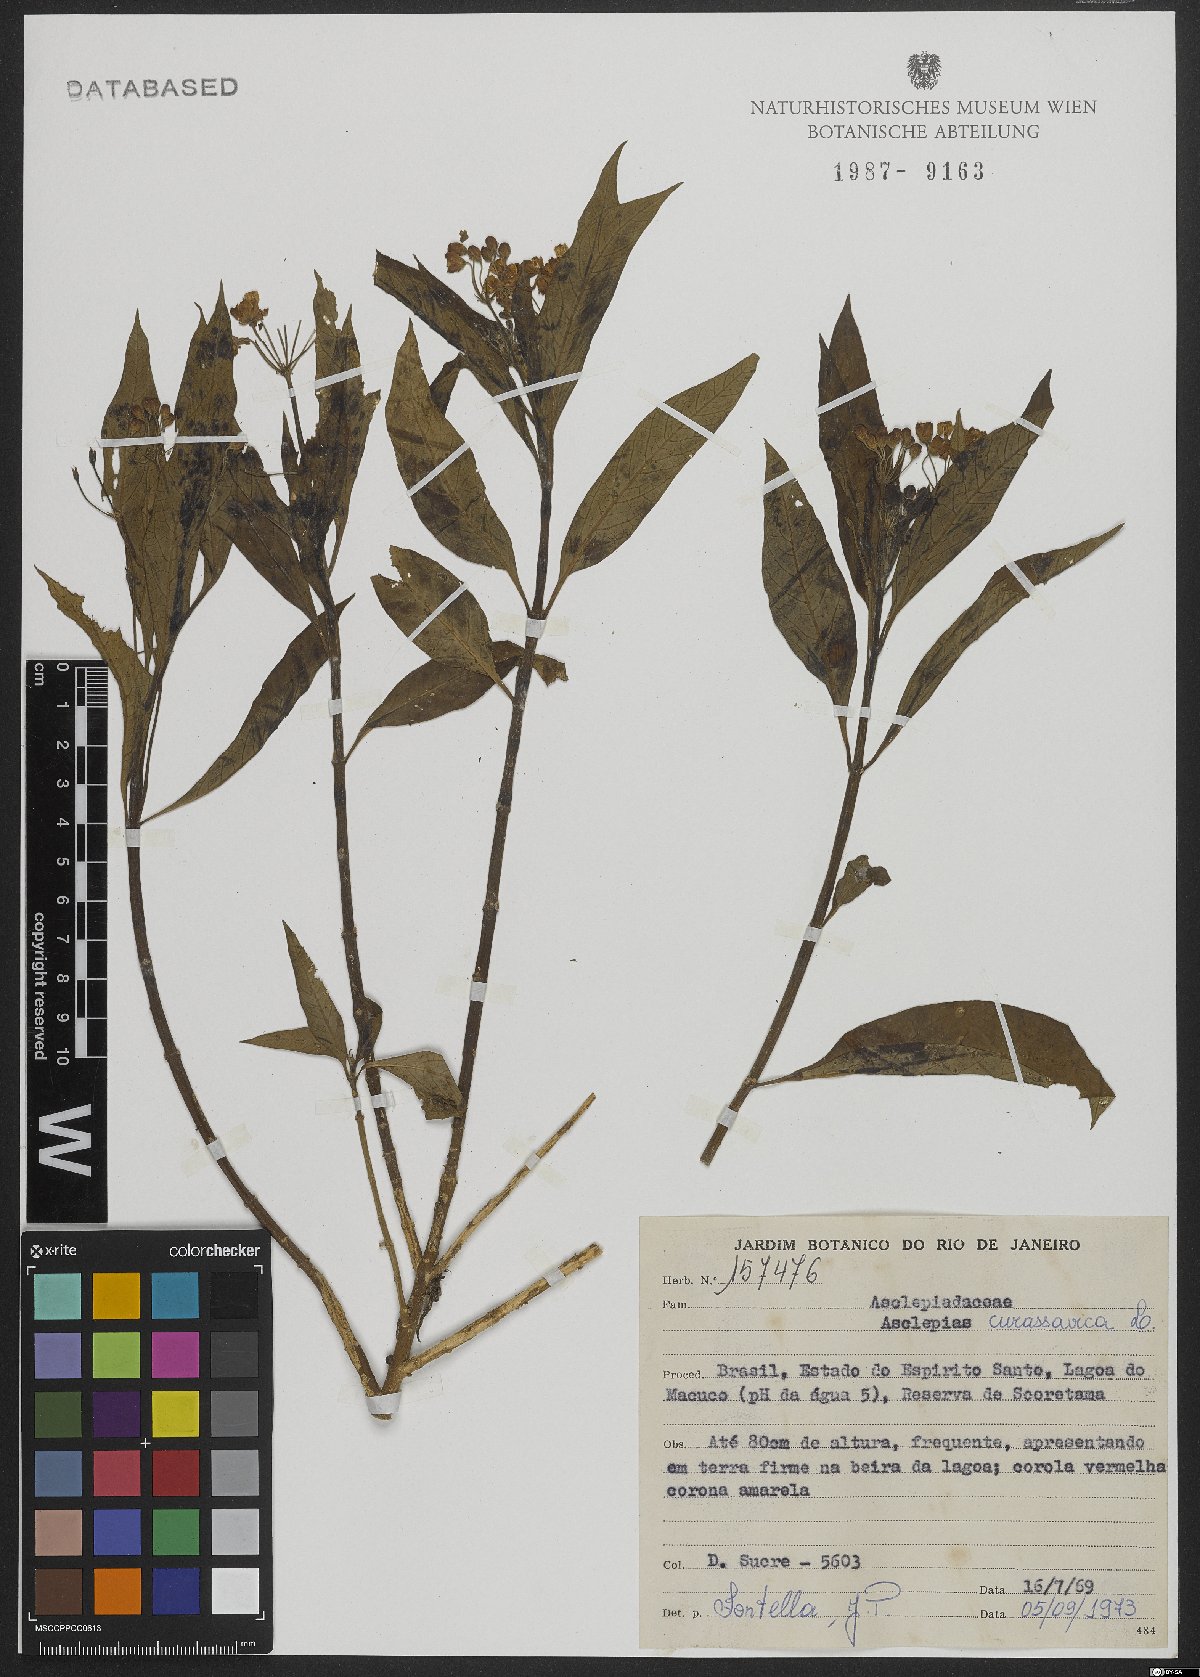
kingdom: Plantae
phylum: Tracheophyta
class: Magnoliopsida
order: Gentianales
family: Apocynaceae
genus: Asclepias
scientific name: Asclepias curassavica
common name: Bloodflower
